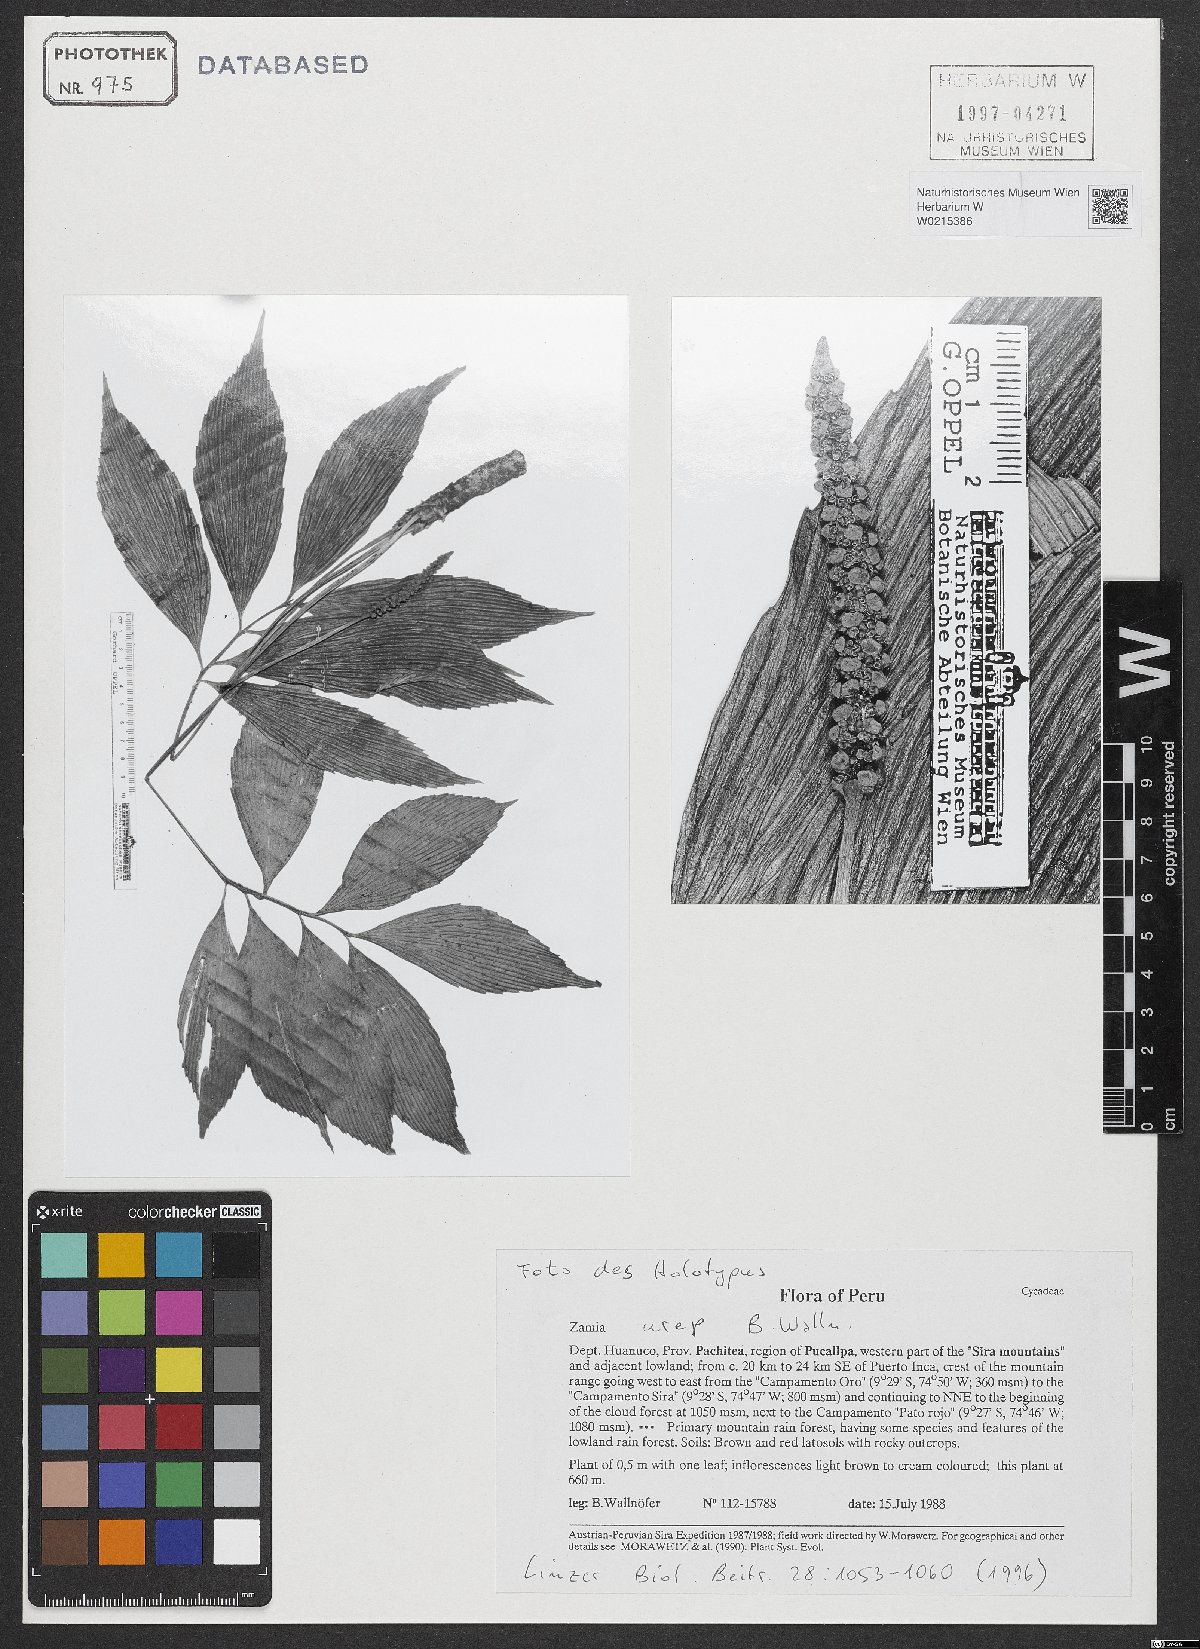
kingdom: Plantae
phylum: Tracheophyta
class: Cycadopsida
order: Cycadales
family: Zamiaceae
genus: Zamia
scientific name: Zamia urep
